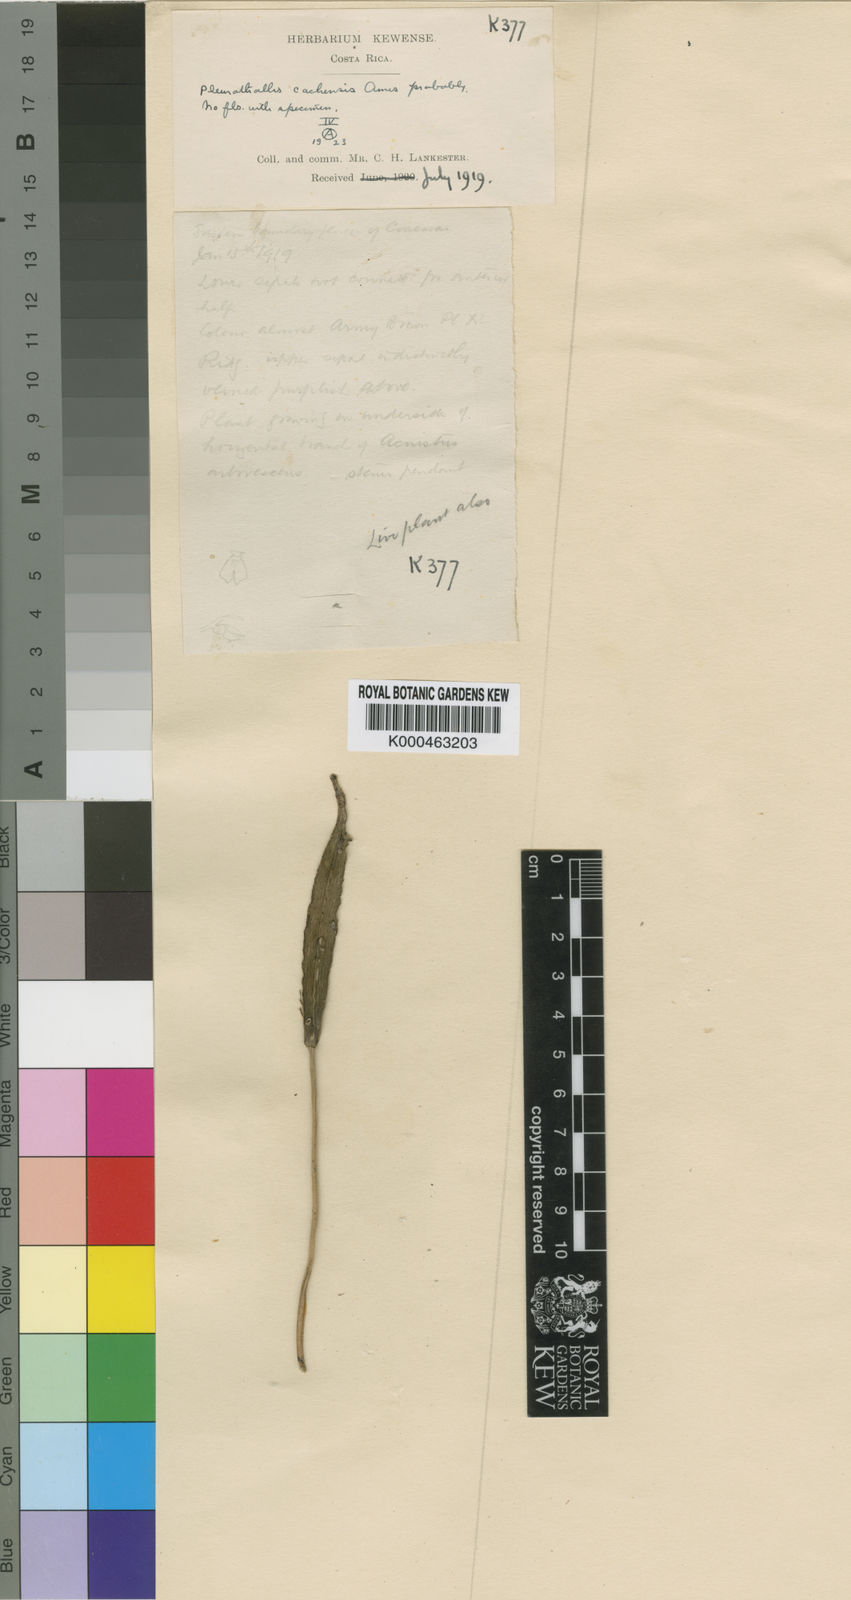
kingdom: Plantae
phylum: Tracheophyta
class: Liliopsida
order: Asparagales
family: Orchidaceae
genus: Acianthera
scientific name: Acianthera cachensis
